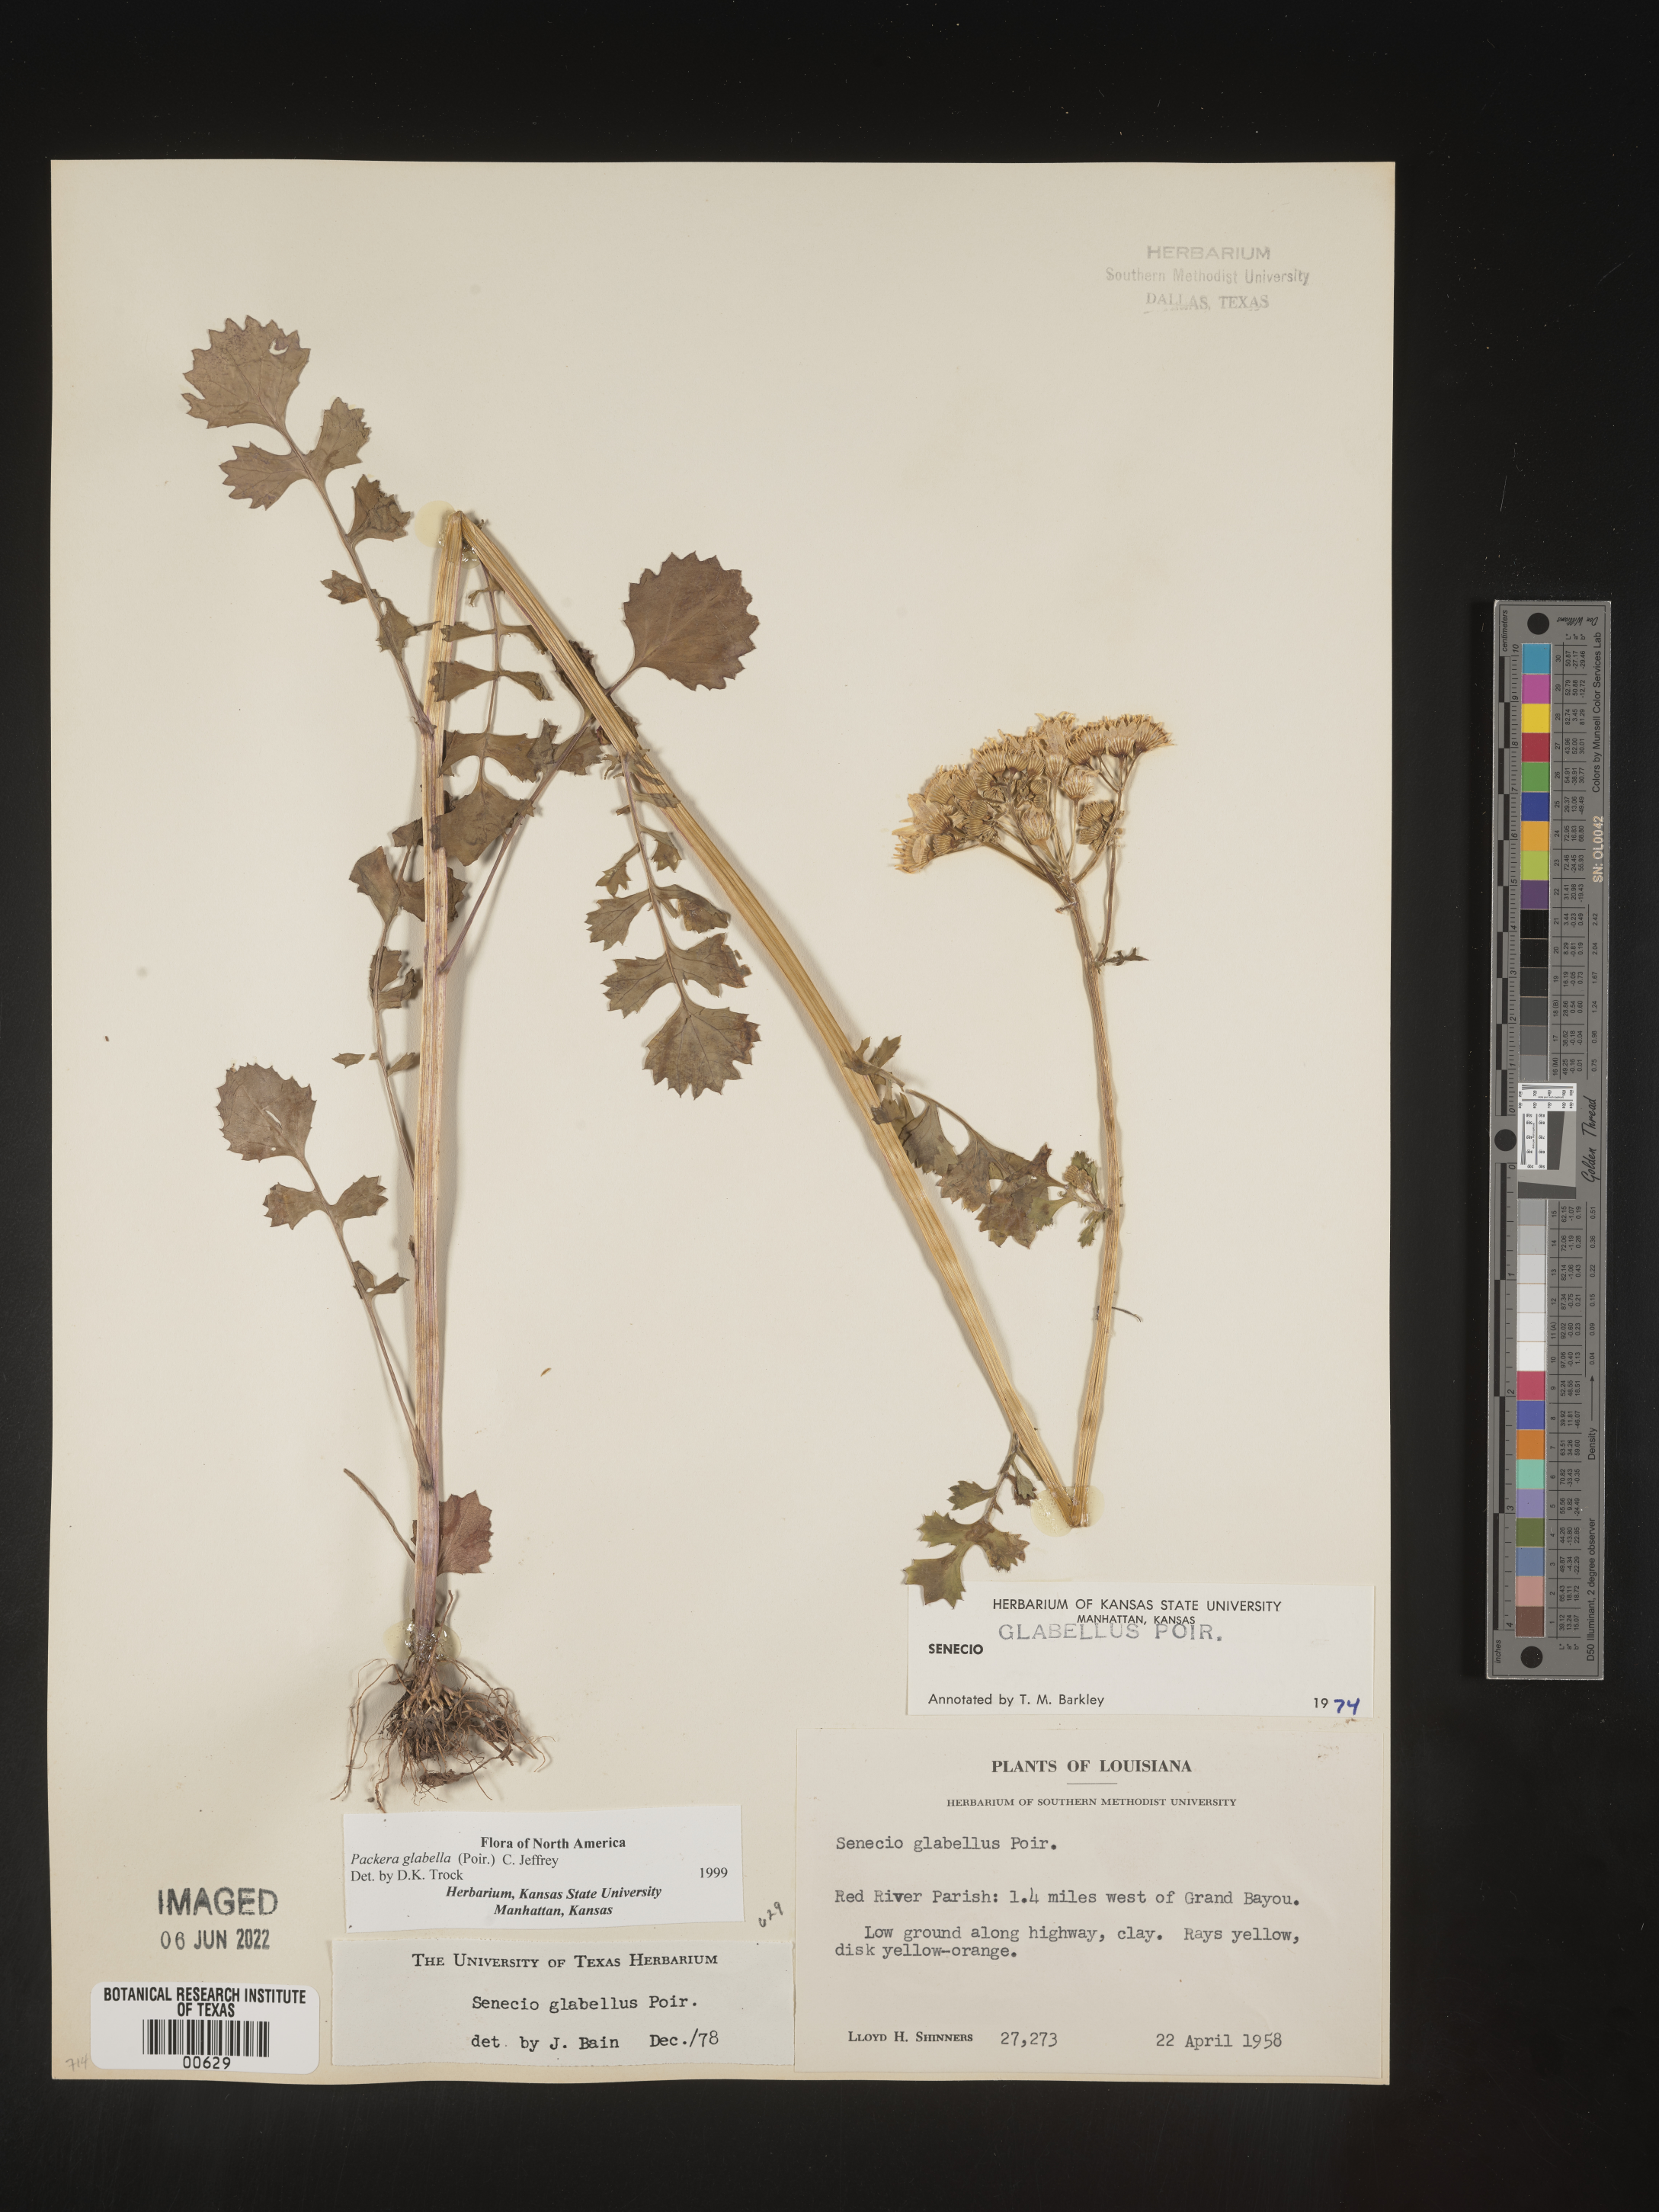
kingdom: Plantae
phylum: Tracheophyta
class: Magnoliopsida
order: Asterales
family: Asteraceae
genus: Packera
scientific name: Packera glabella
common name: Butterweed
